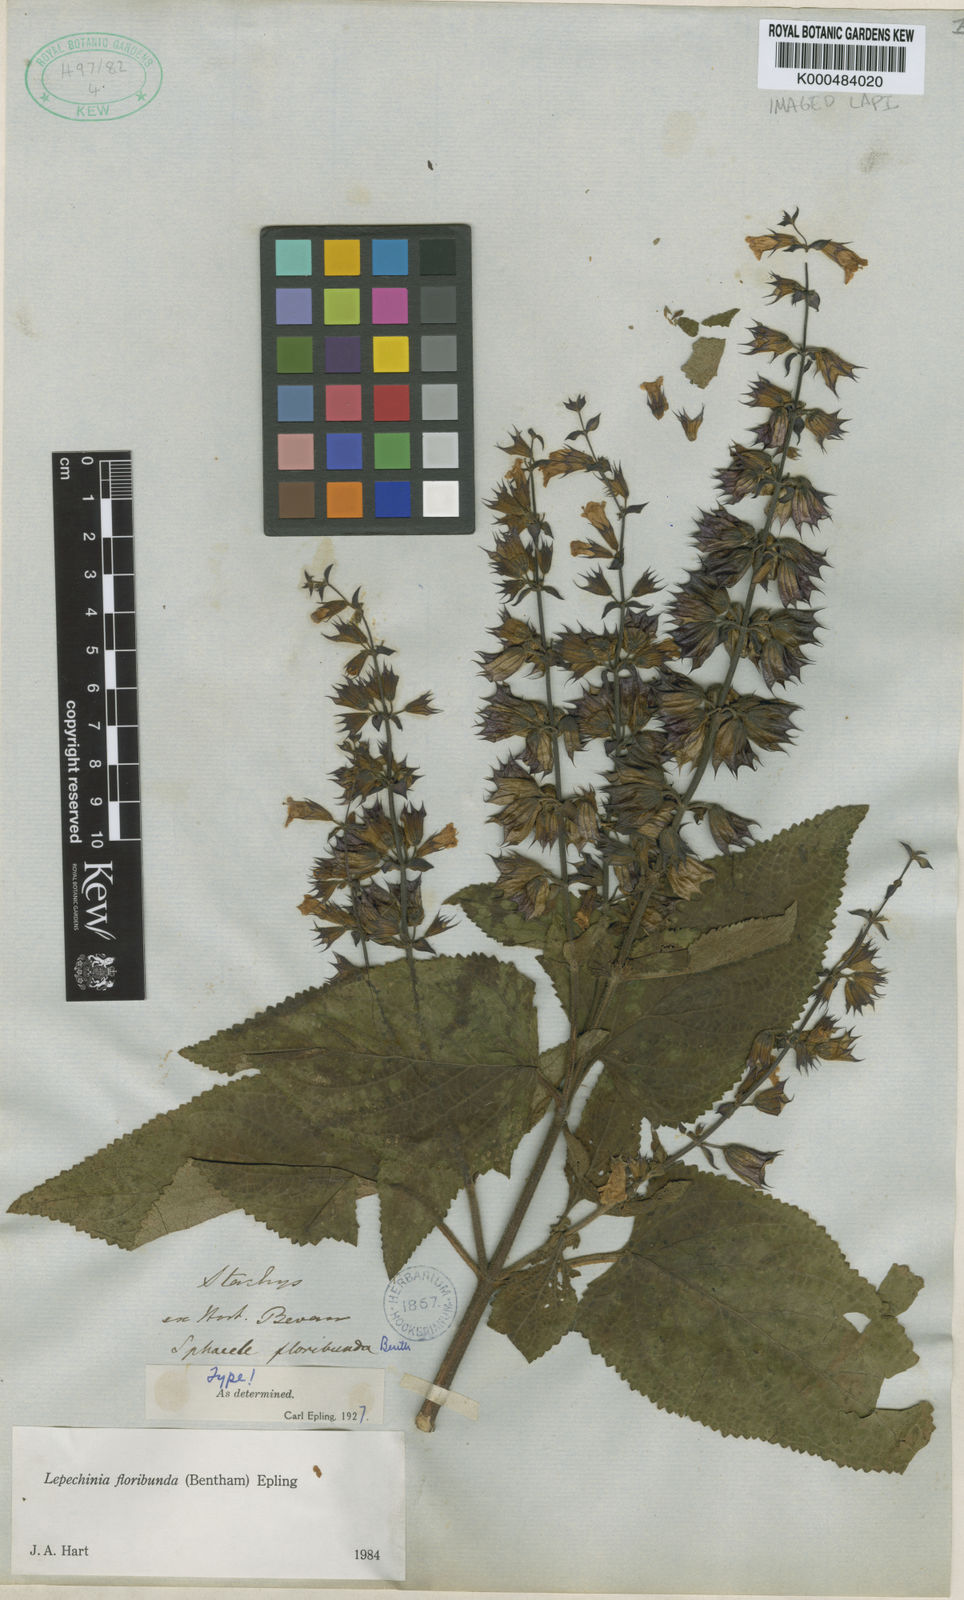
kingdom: Plantae
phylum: Tracheophyta
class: Magnoliopsida
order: Lamiales
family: Lamiaceae
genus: Lepechinia
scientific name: Lepechinia floribunda
